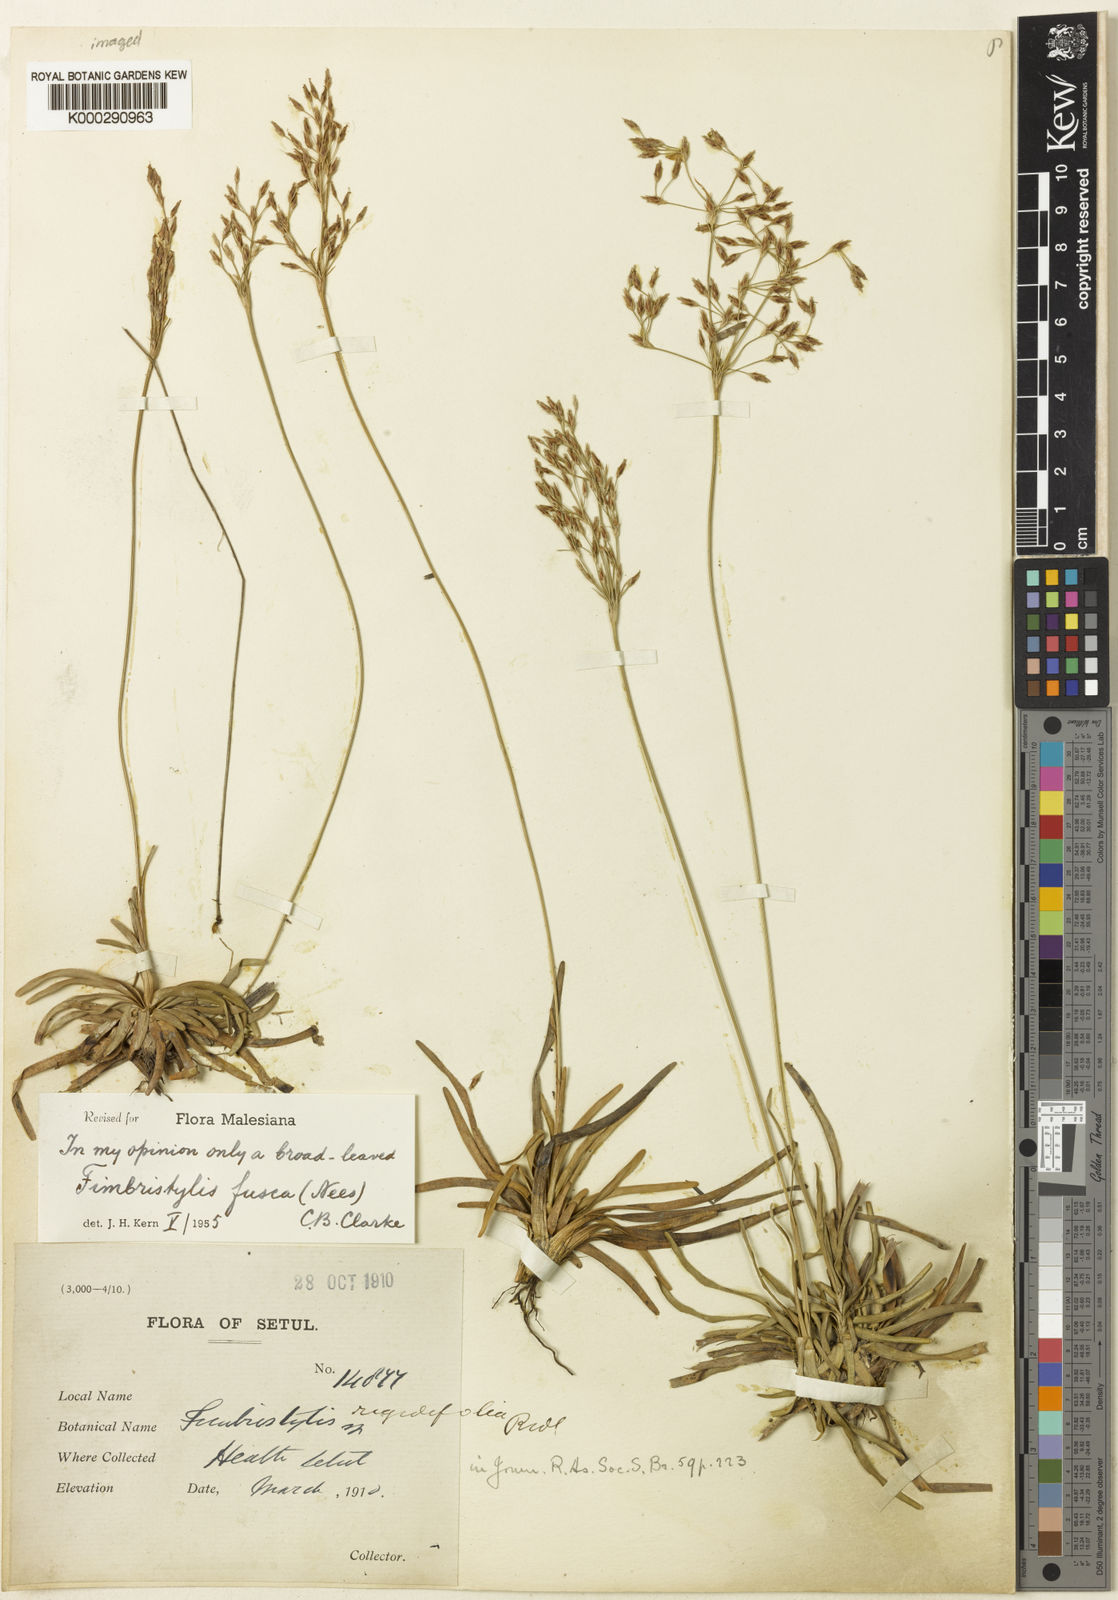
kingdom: Plantae
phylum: Tracheophyta
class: Liliopsida
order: Poales
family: Cyperaceae
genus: Fimbristylis
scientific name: Fimbristylis fusca
